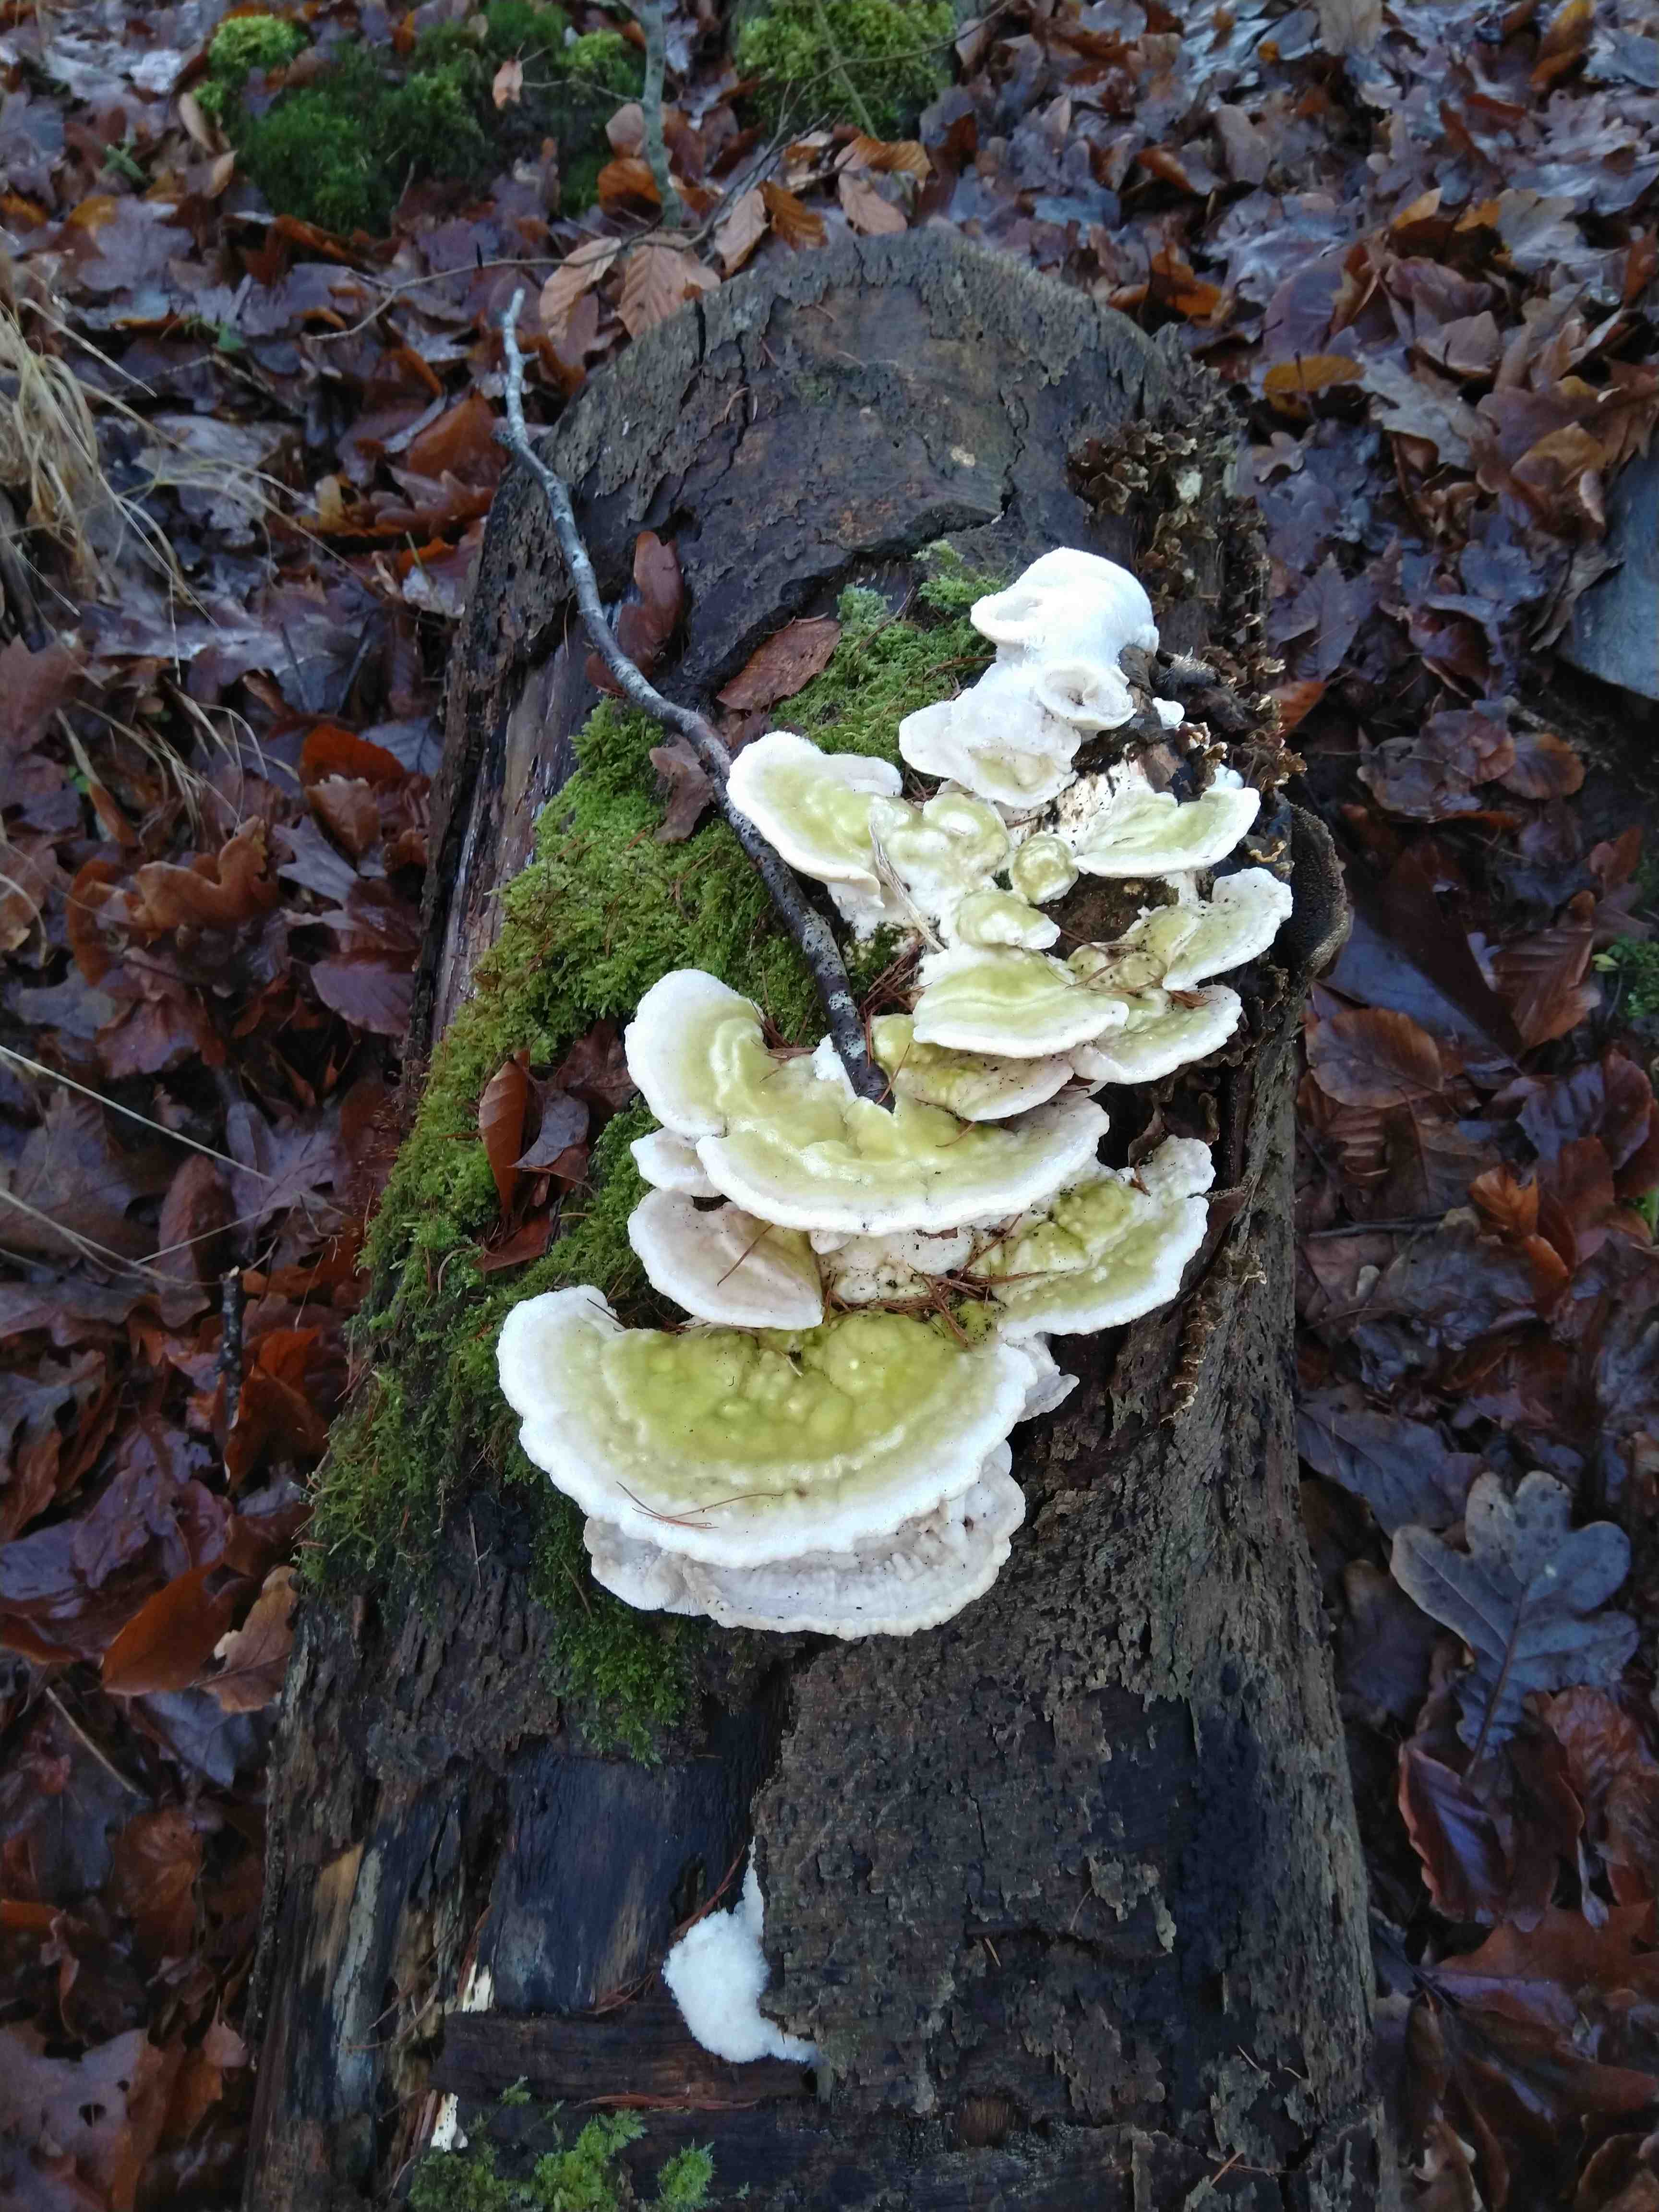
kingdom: Fungi
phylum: Basidiomycota
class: Agaricomycetes
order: Polyporales
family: Polyporaceae
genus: Trametes
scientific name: Trametes gibbosa
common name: puklet læderporesvamp
